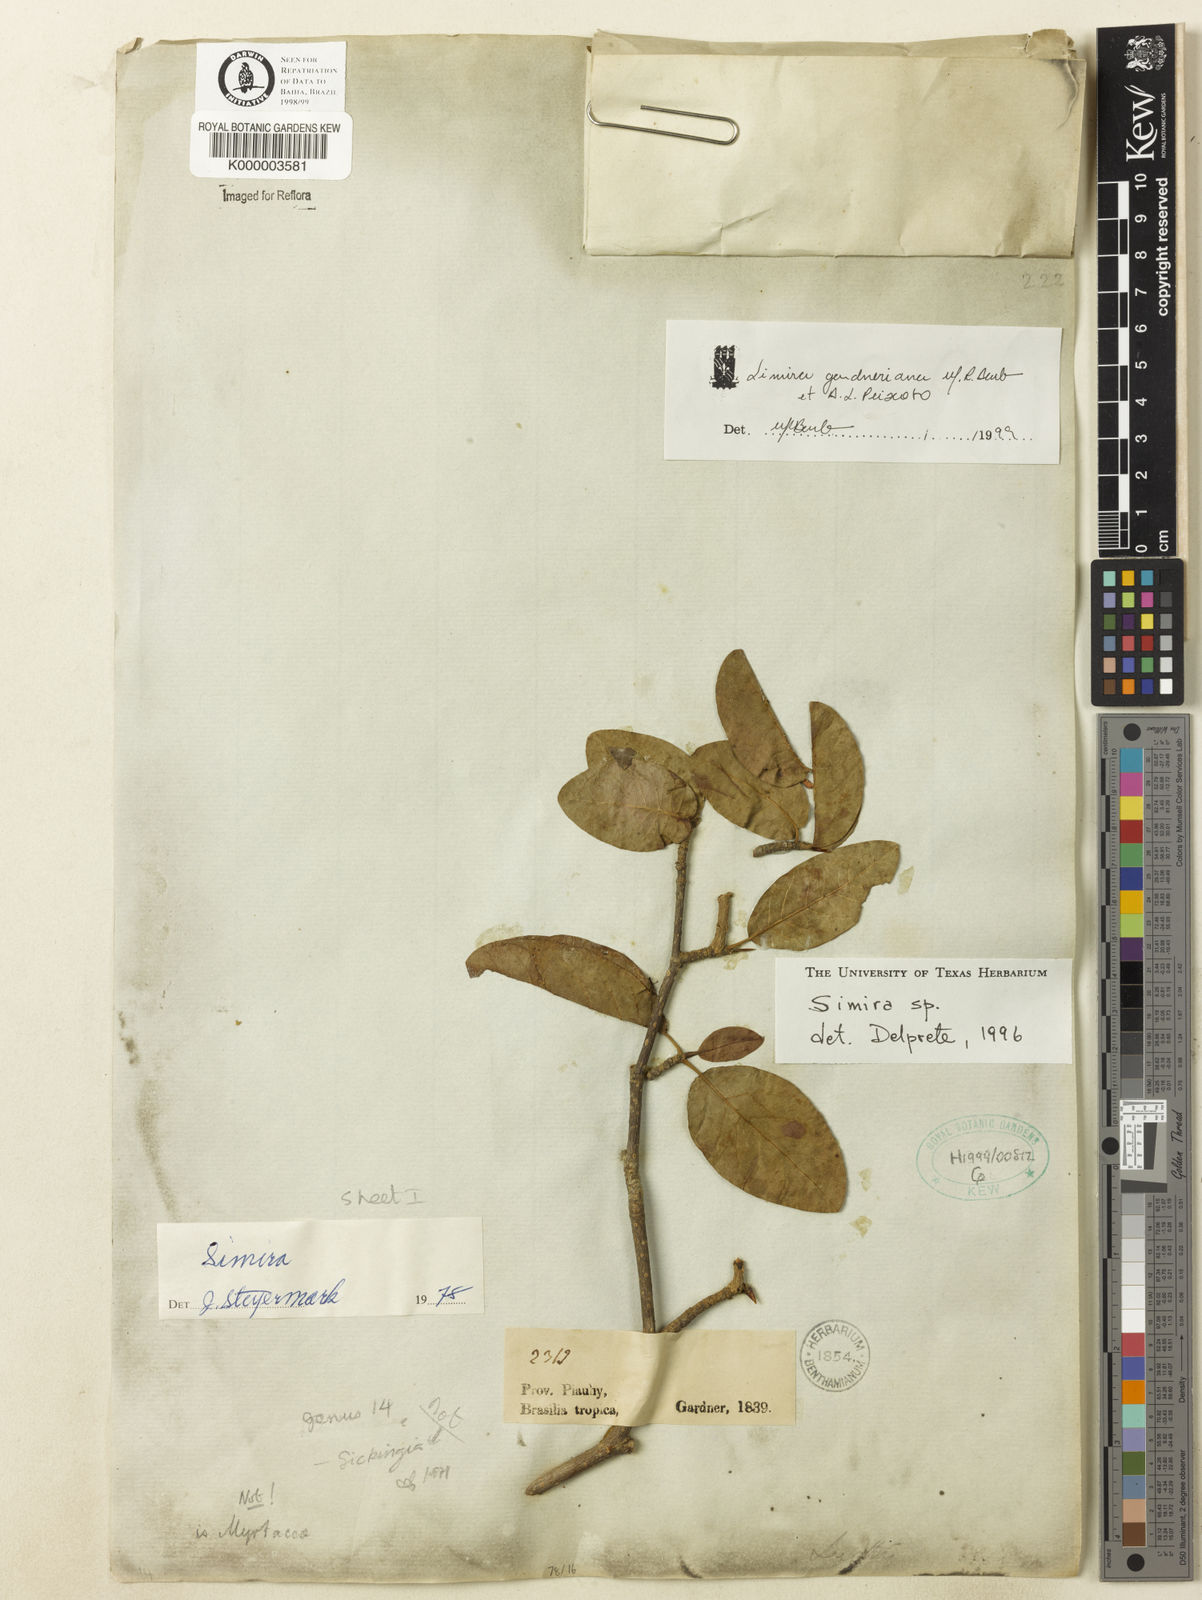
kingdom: Plantae
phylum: Tracheophyta
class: Magnoliopsida
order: Gentianales
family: Rubiaceae
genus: Simira
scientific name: Simira gardneriana
